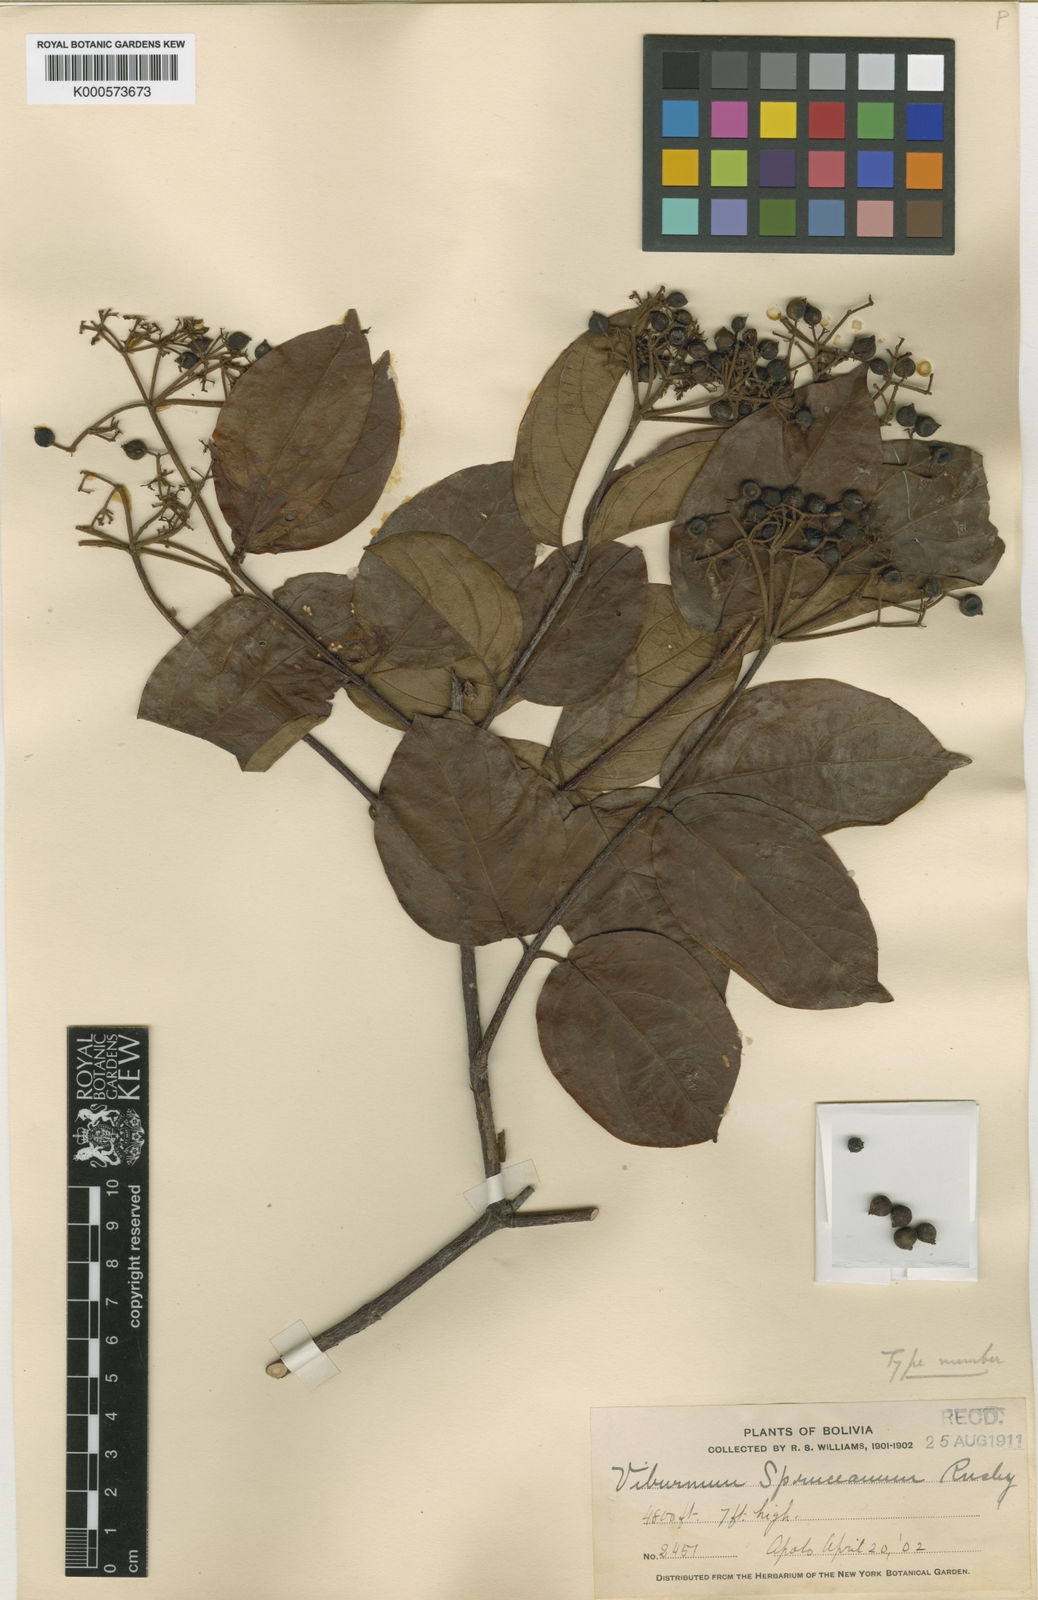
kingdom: Plantae
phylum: Tracheophyta
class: Magnoliopsida
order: Dipsacales
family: Viburnaceae
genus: Viburnum
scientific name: Viburnum spruceanum
